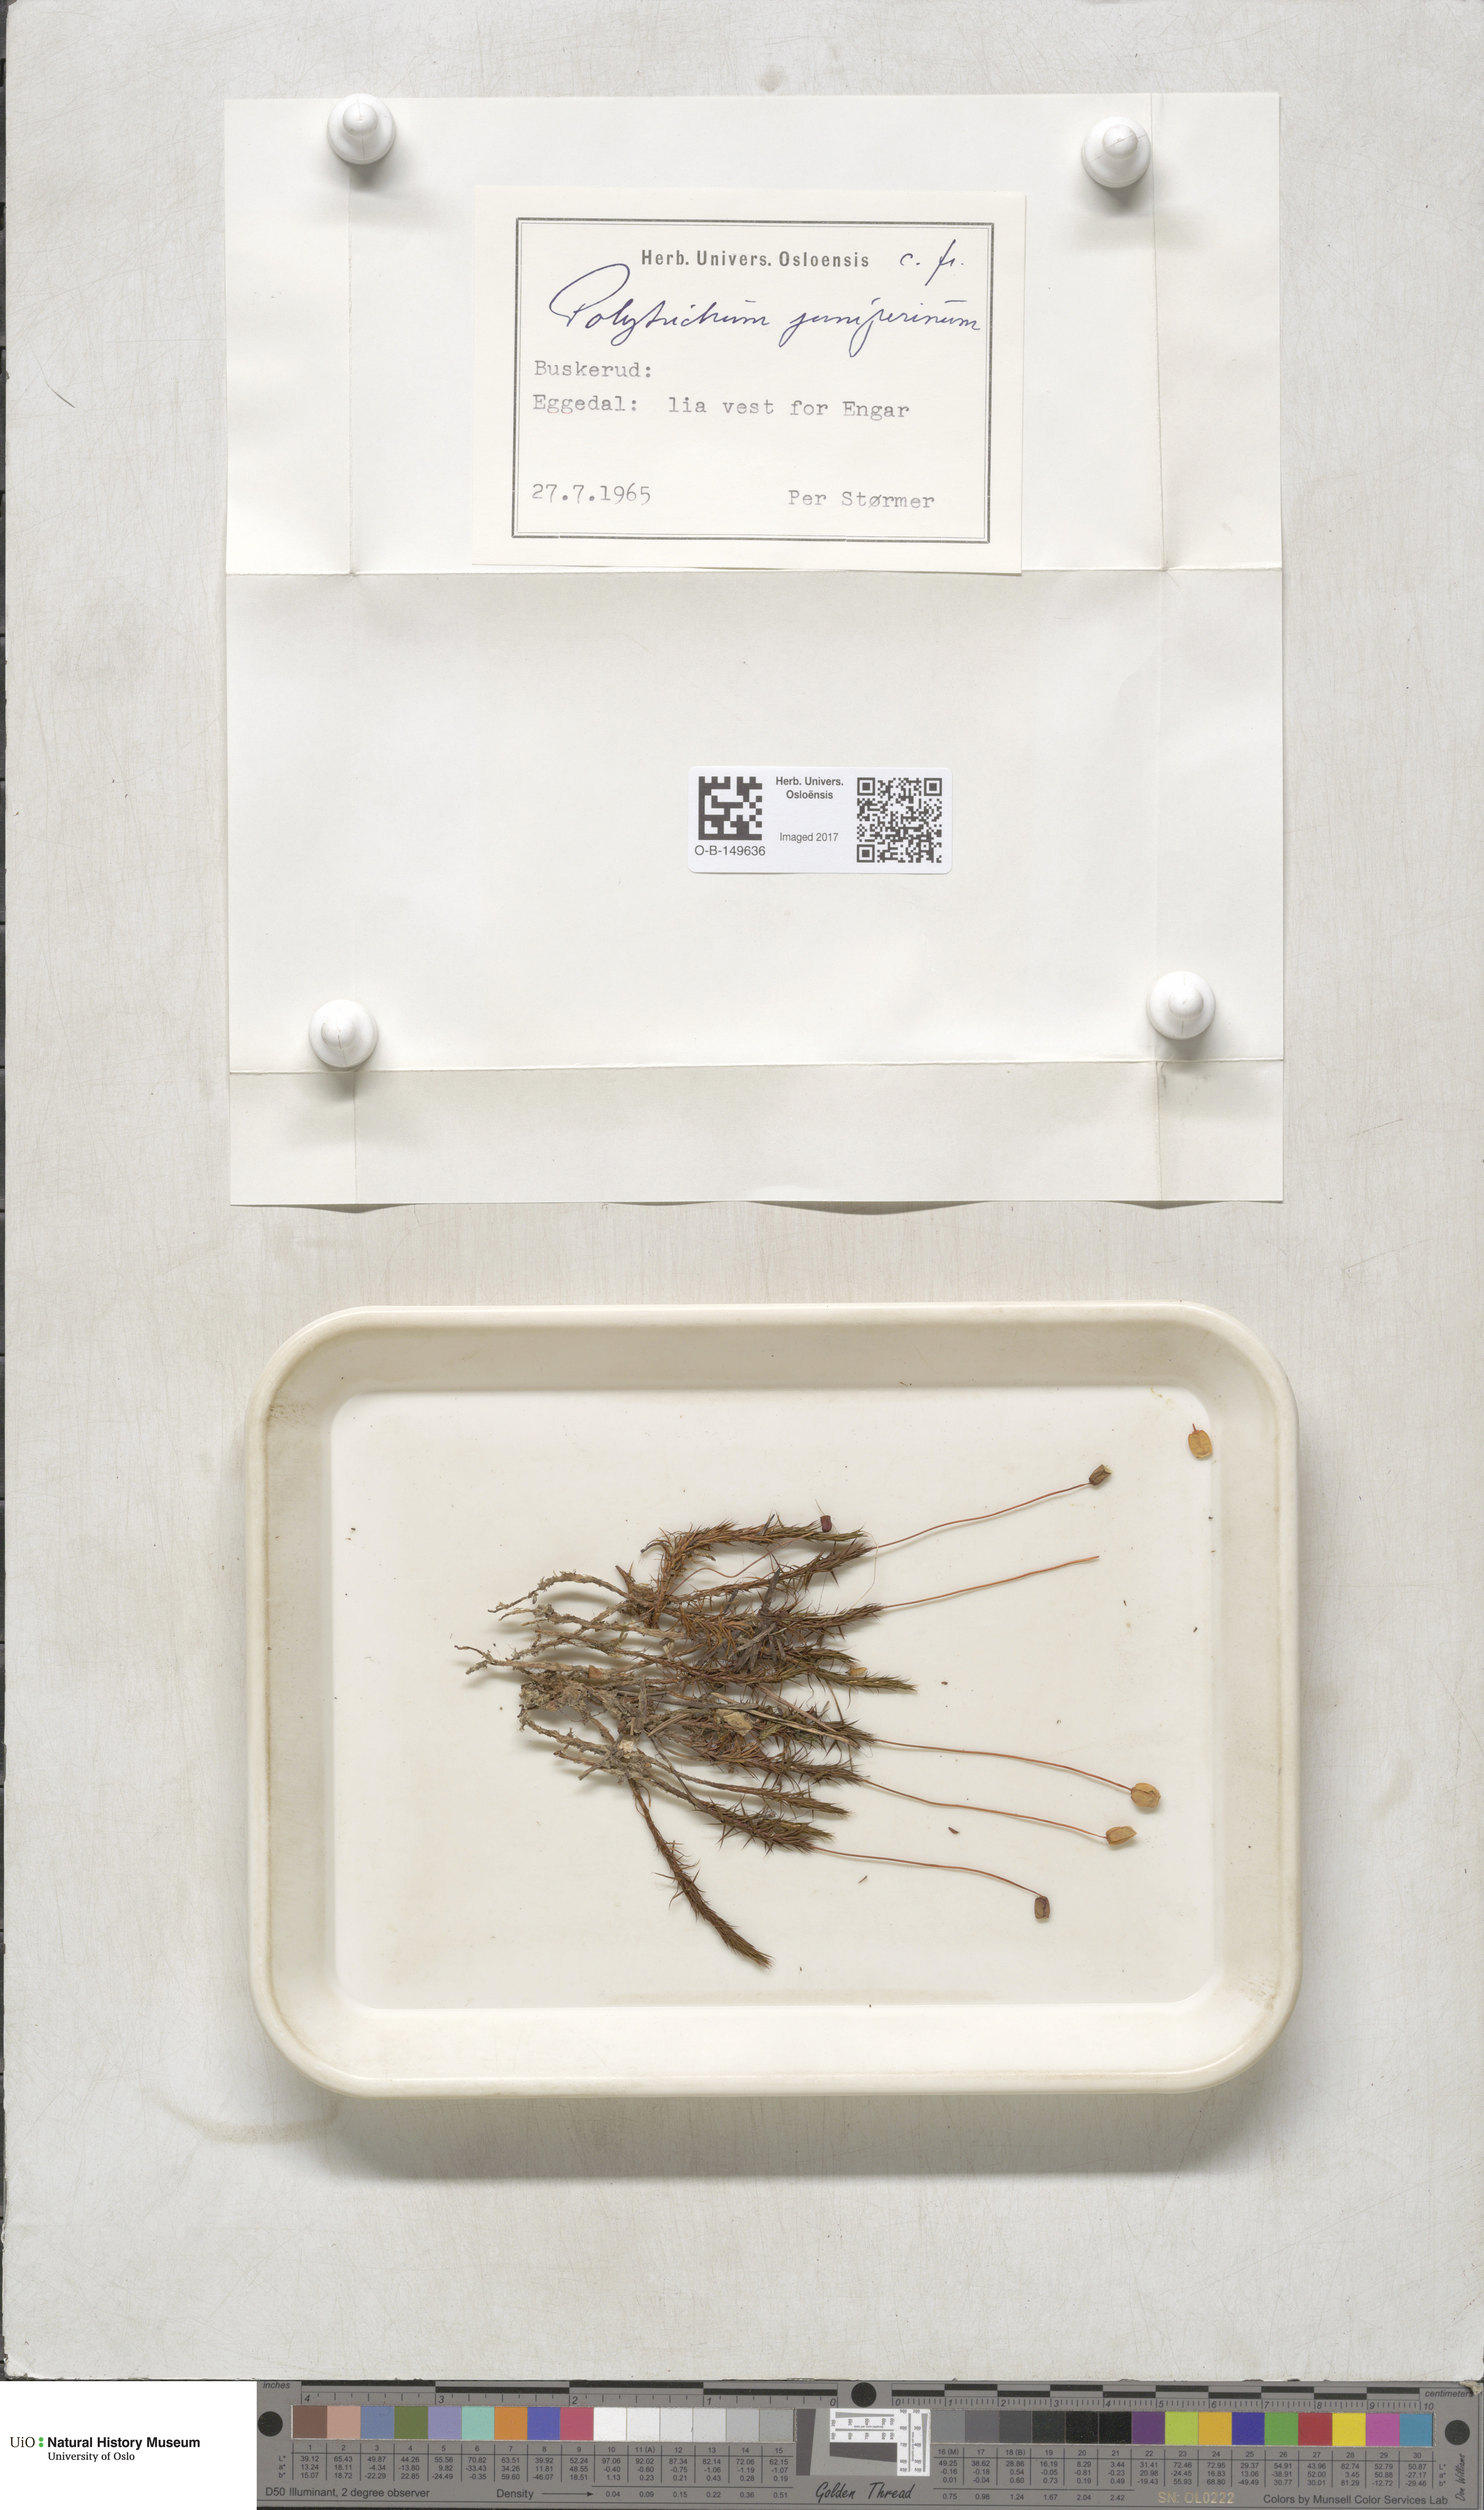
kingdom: Plantae
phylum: Bryophyta
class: Polytrichopsida
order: Polytrichales
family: Polytrichaceae
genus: Polytrichum
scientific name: Polytrichum juniperinum
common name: Juniper haircap moss
